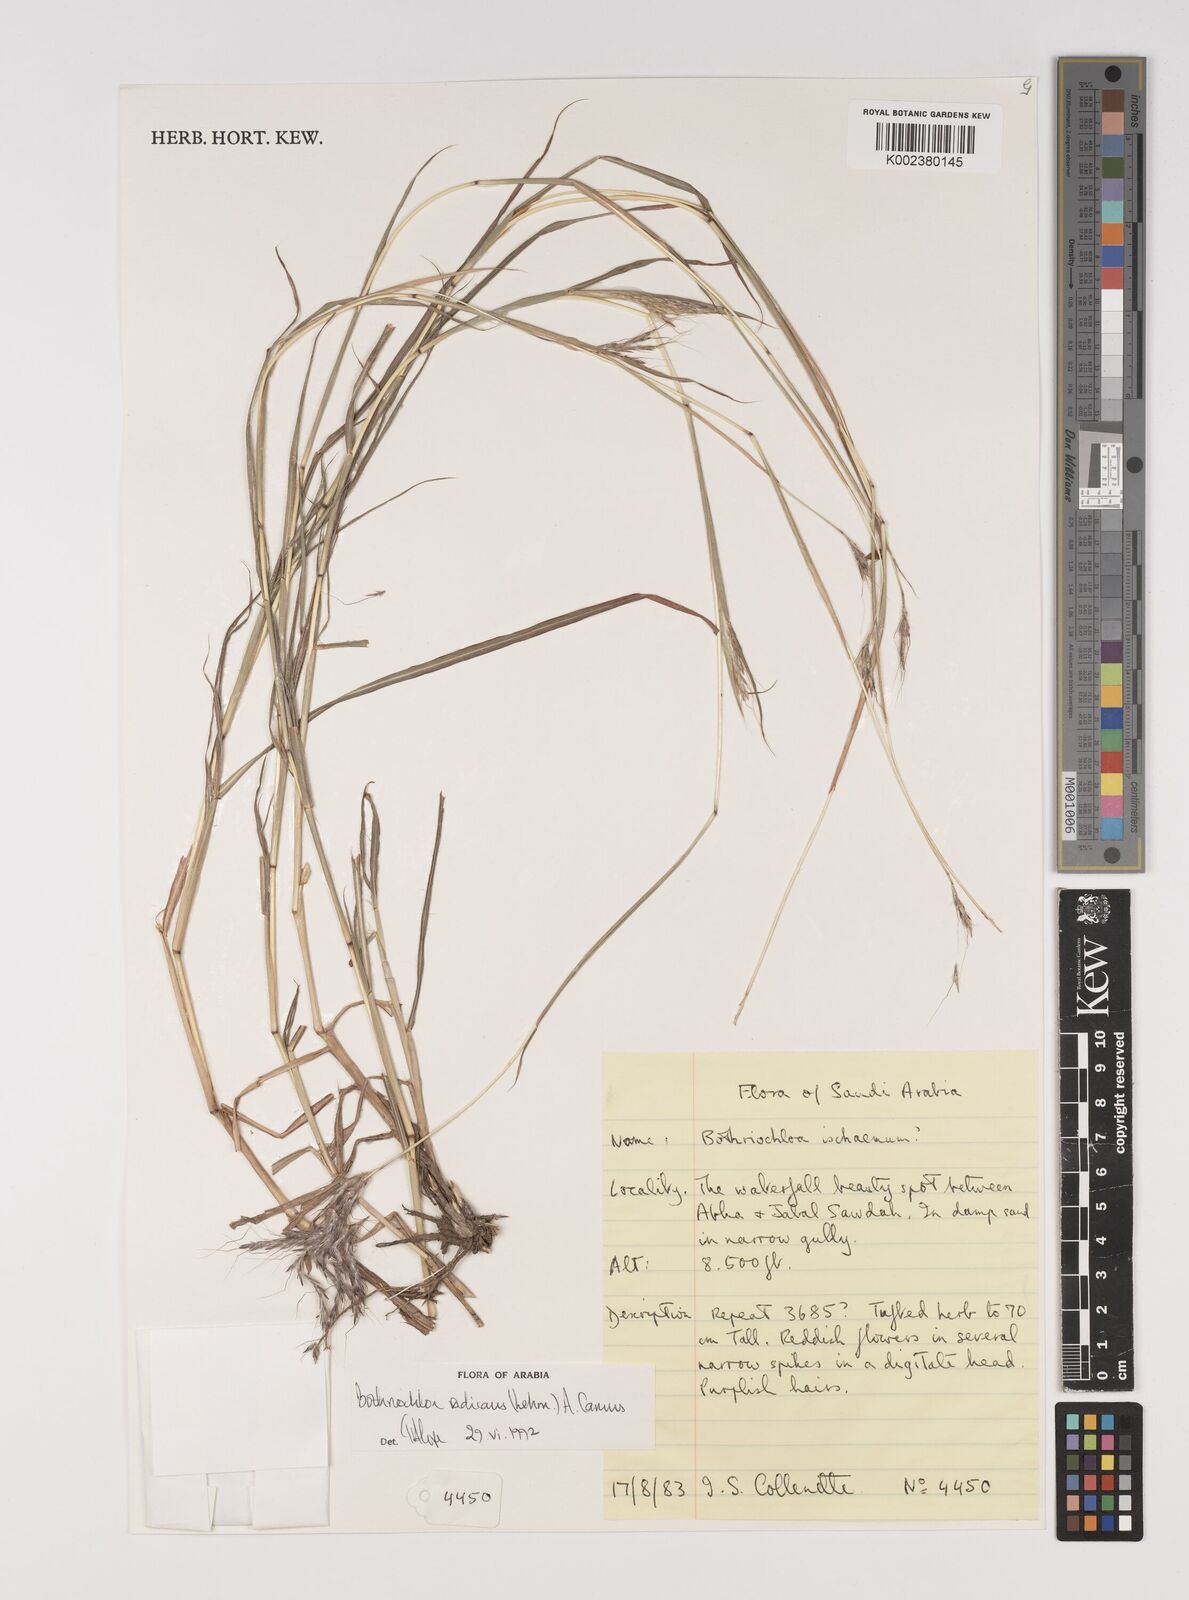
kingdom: Plantae
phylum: Tracheophyta
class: Liliopsida
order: Poales
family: Poaceae
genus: Bothriochloa
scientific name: Bothriochloa radicans
